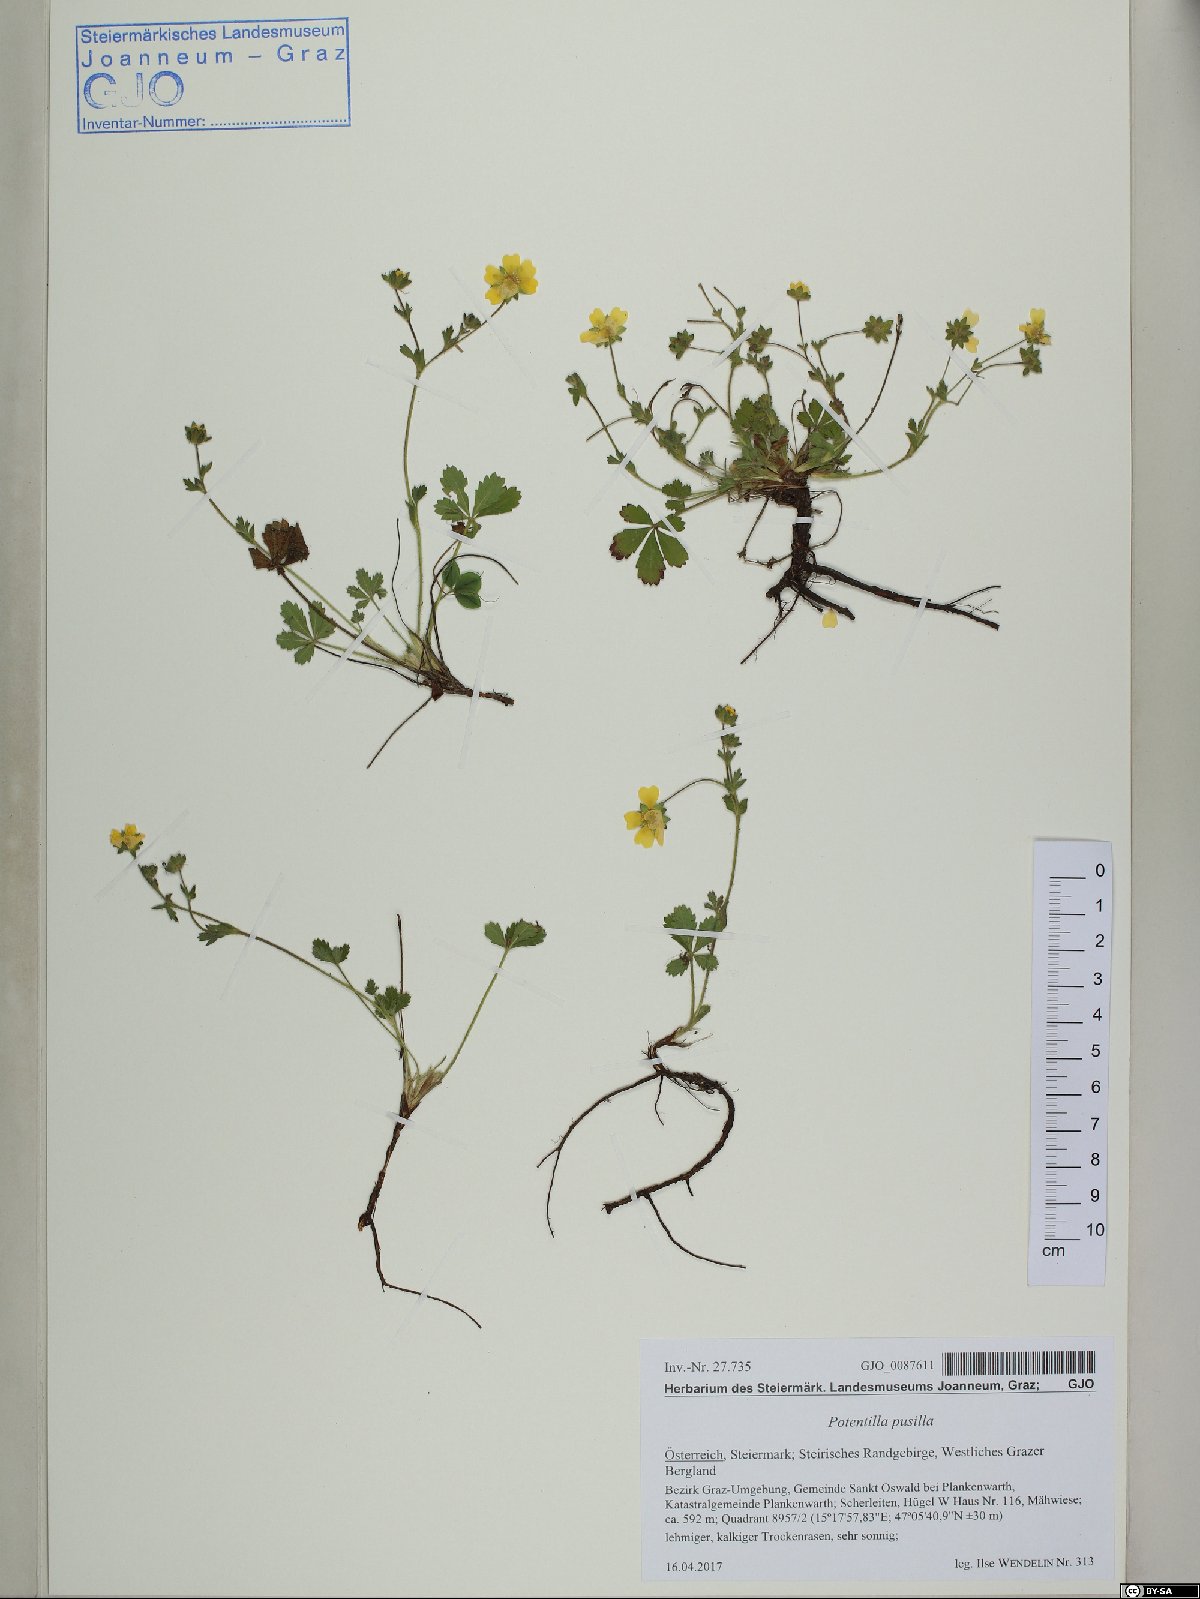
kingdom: Plantae
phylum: Tracheophyta
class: Magnoliopsida
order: Rosales
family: Rosaceae
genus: Potentilla
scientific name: Potentilla pusilla
